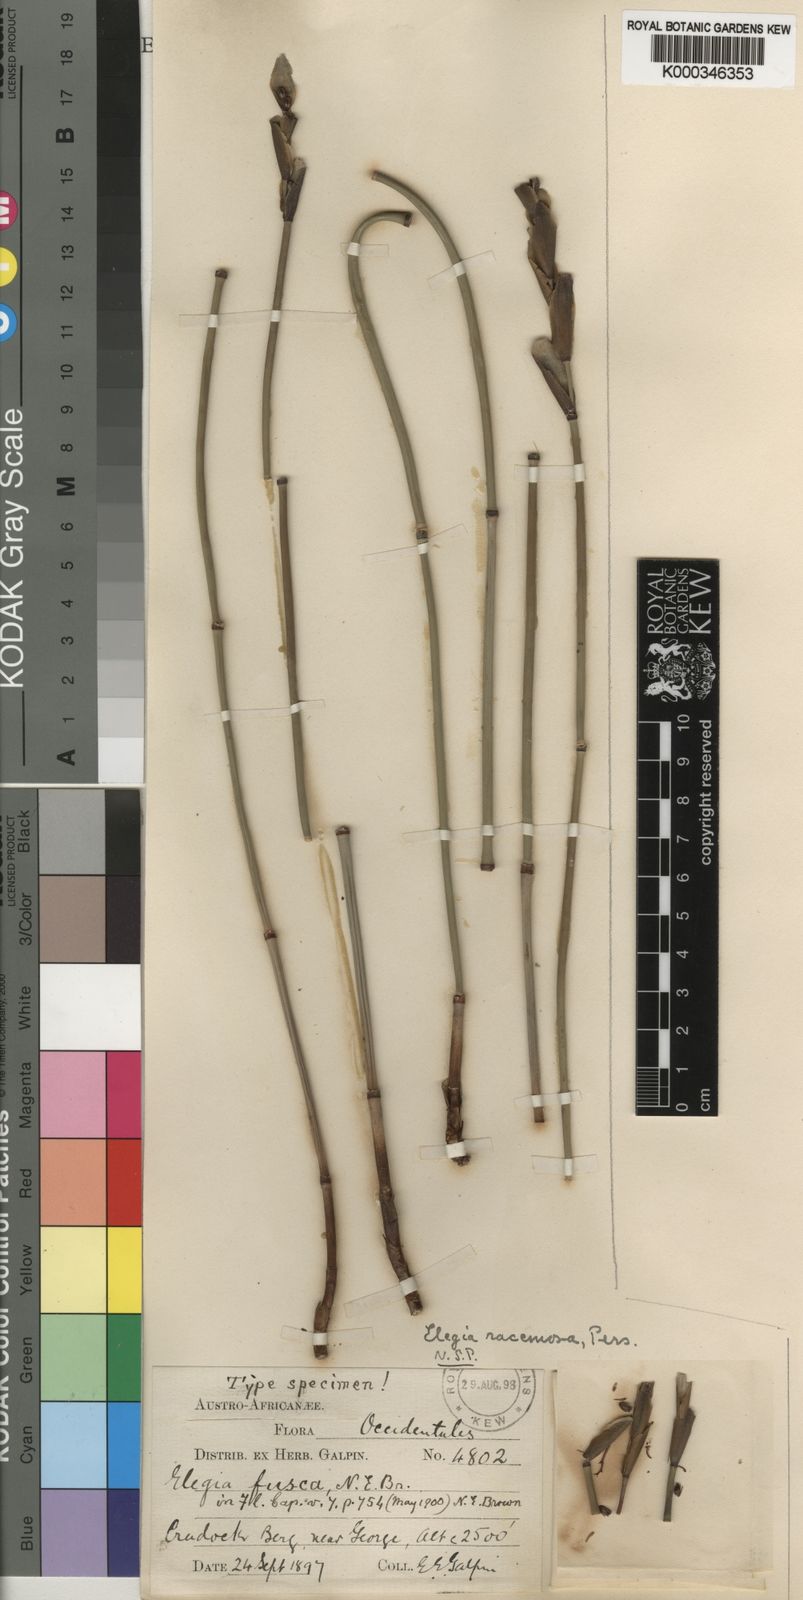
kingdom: Plantae
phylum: Tracheophyta
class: Liliopsida
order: Poales
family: Restionaceae
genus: Elegia
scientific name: Elegia racemosa
